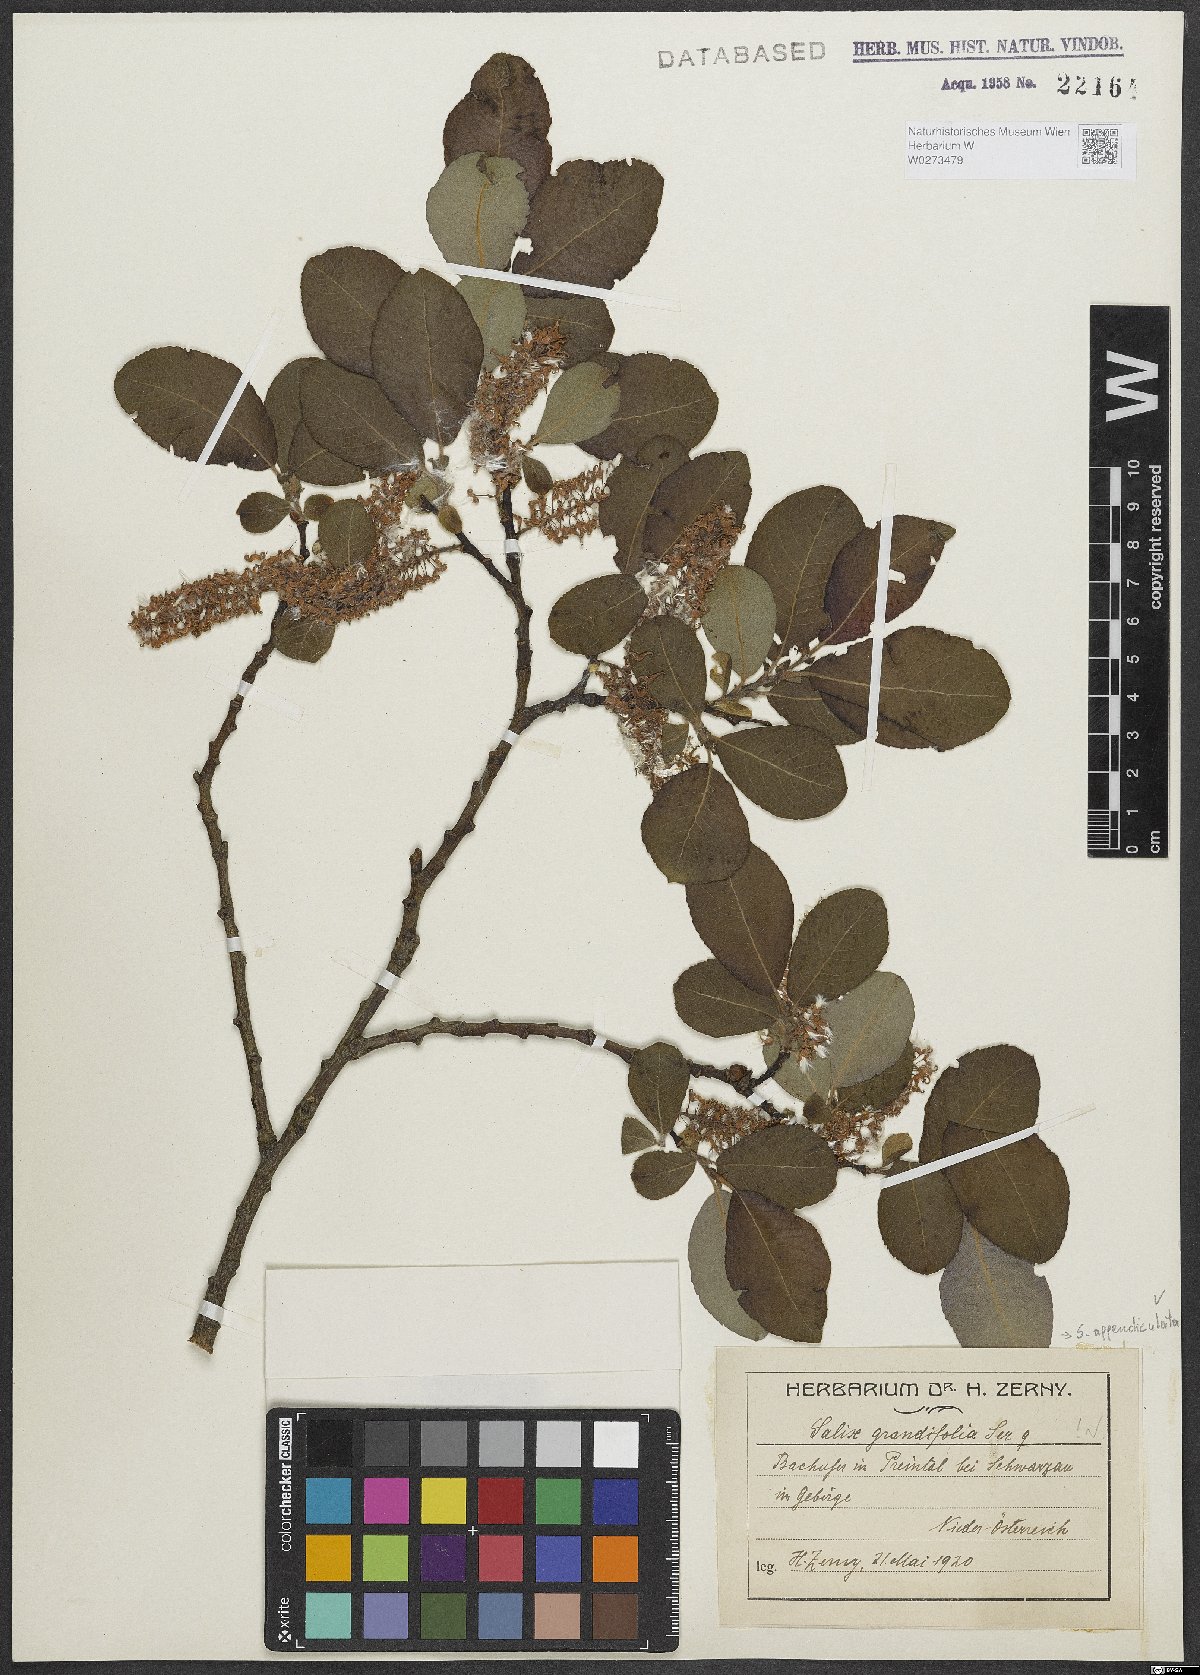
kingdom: Plantae
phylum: Tracheophyta
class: Magnoliopsida
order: Malpighiales
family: Salicaceae
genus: Salix
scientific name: Salix appendiculata
